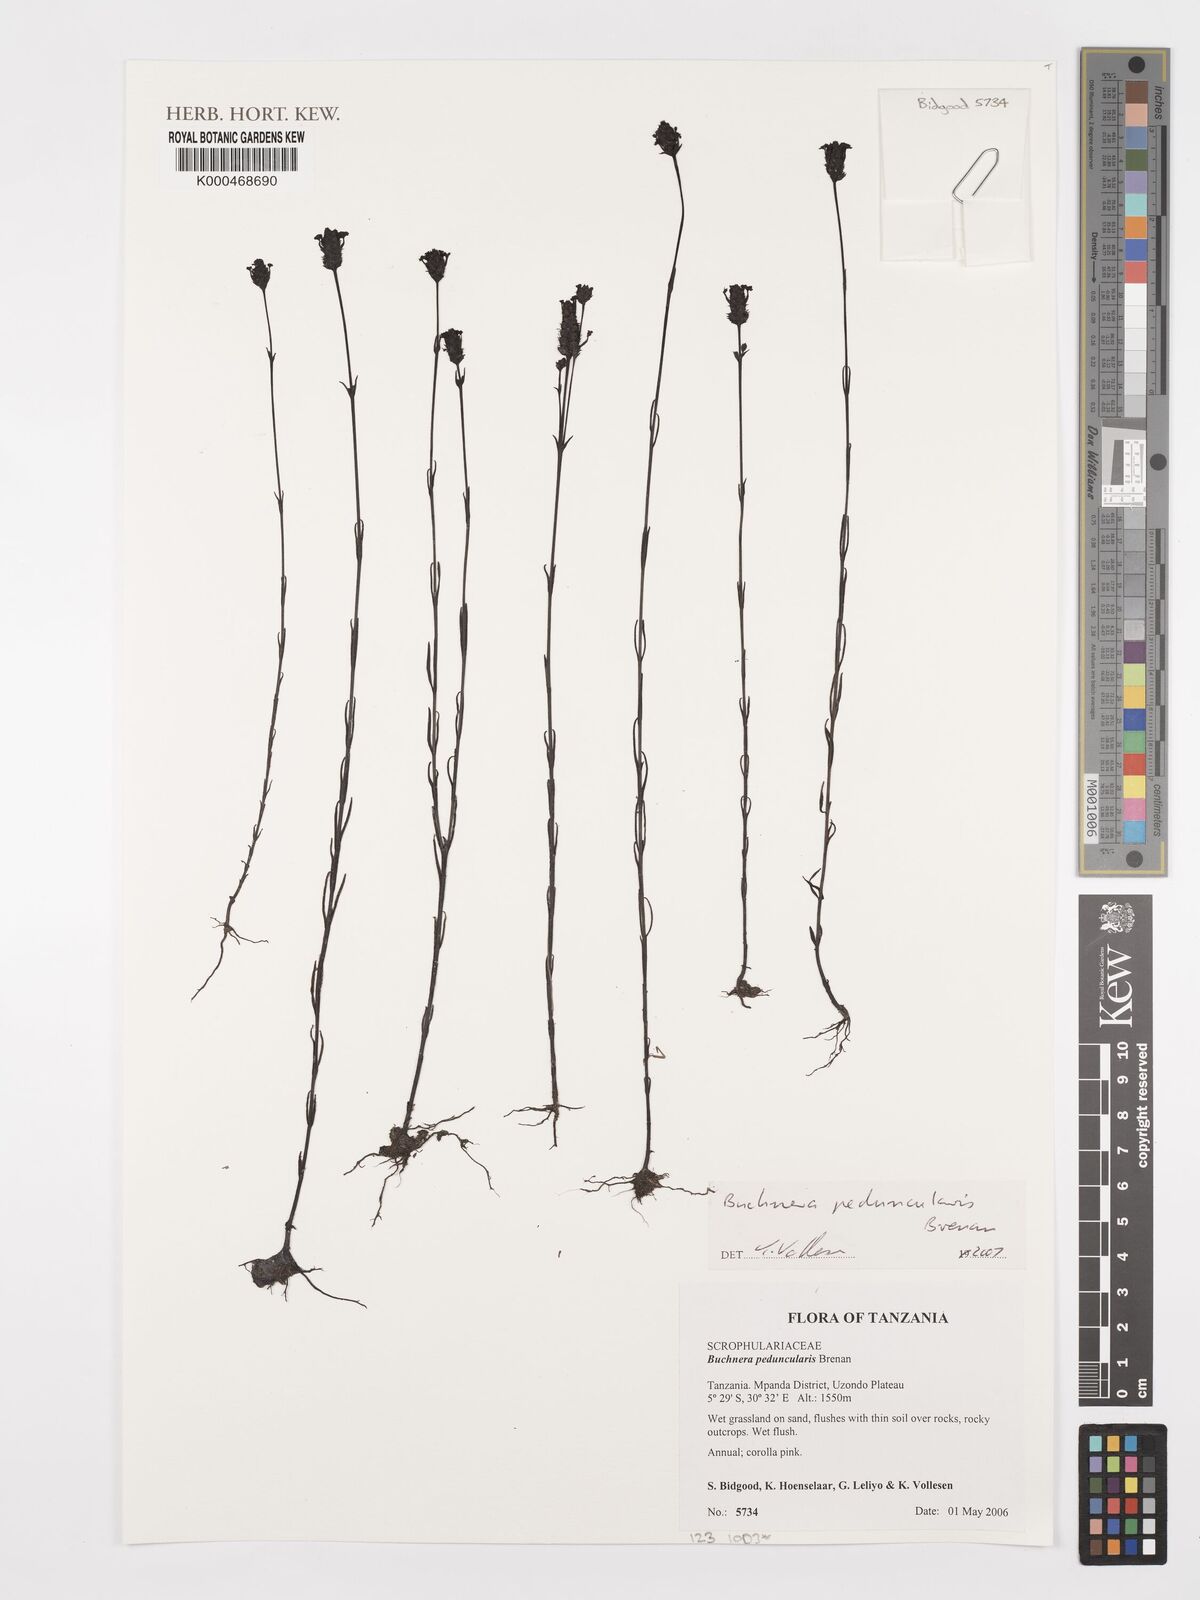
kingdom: Plantae
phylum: Tracheophyta
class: Magnoliopsida
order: Lamiales
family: Orobanchaceae
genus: Buchnera
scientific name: Buchnera peduncularis
